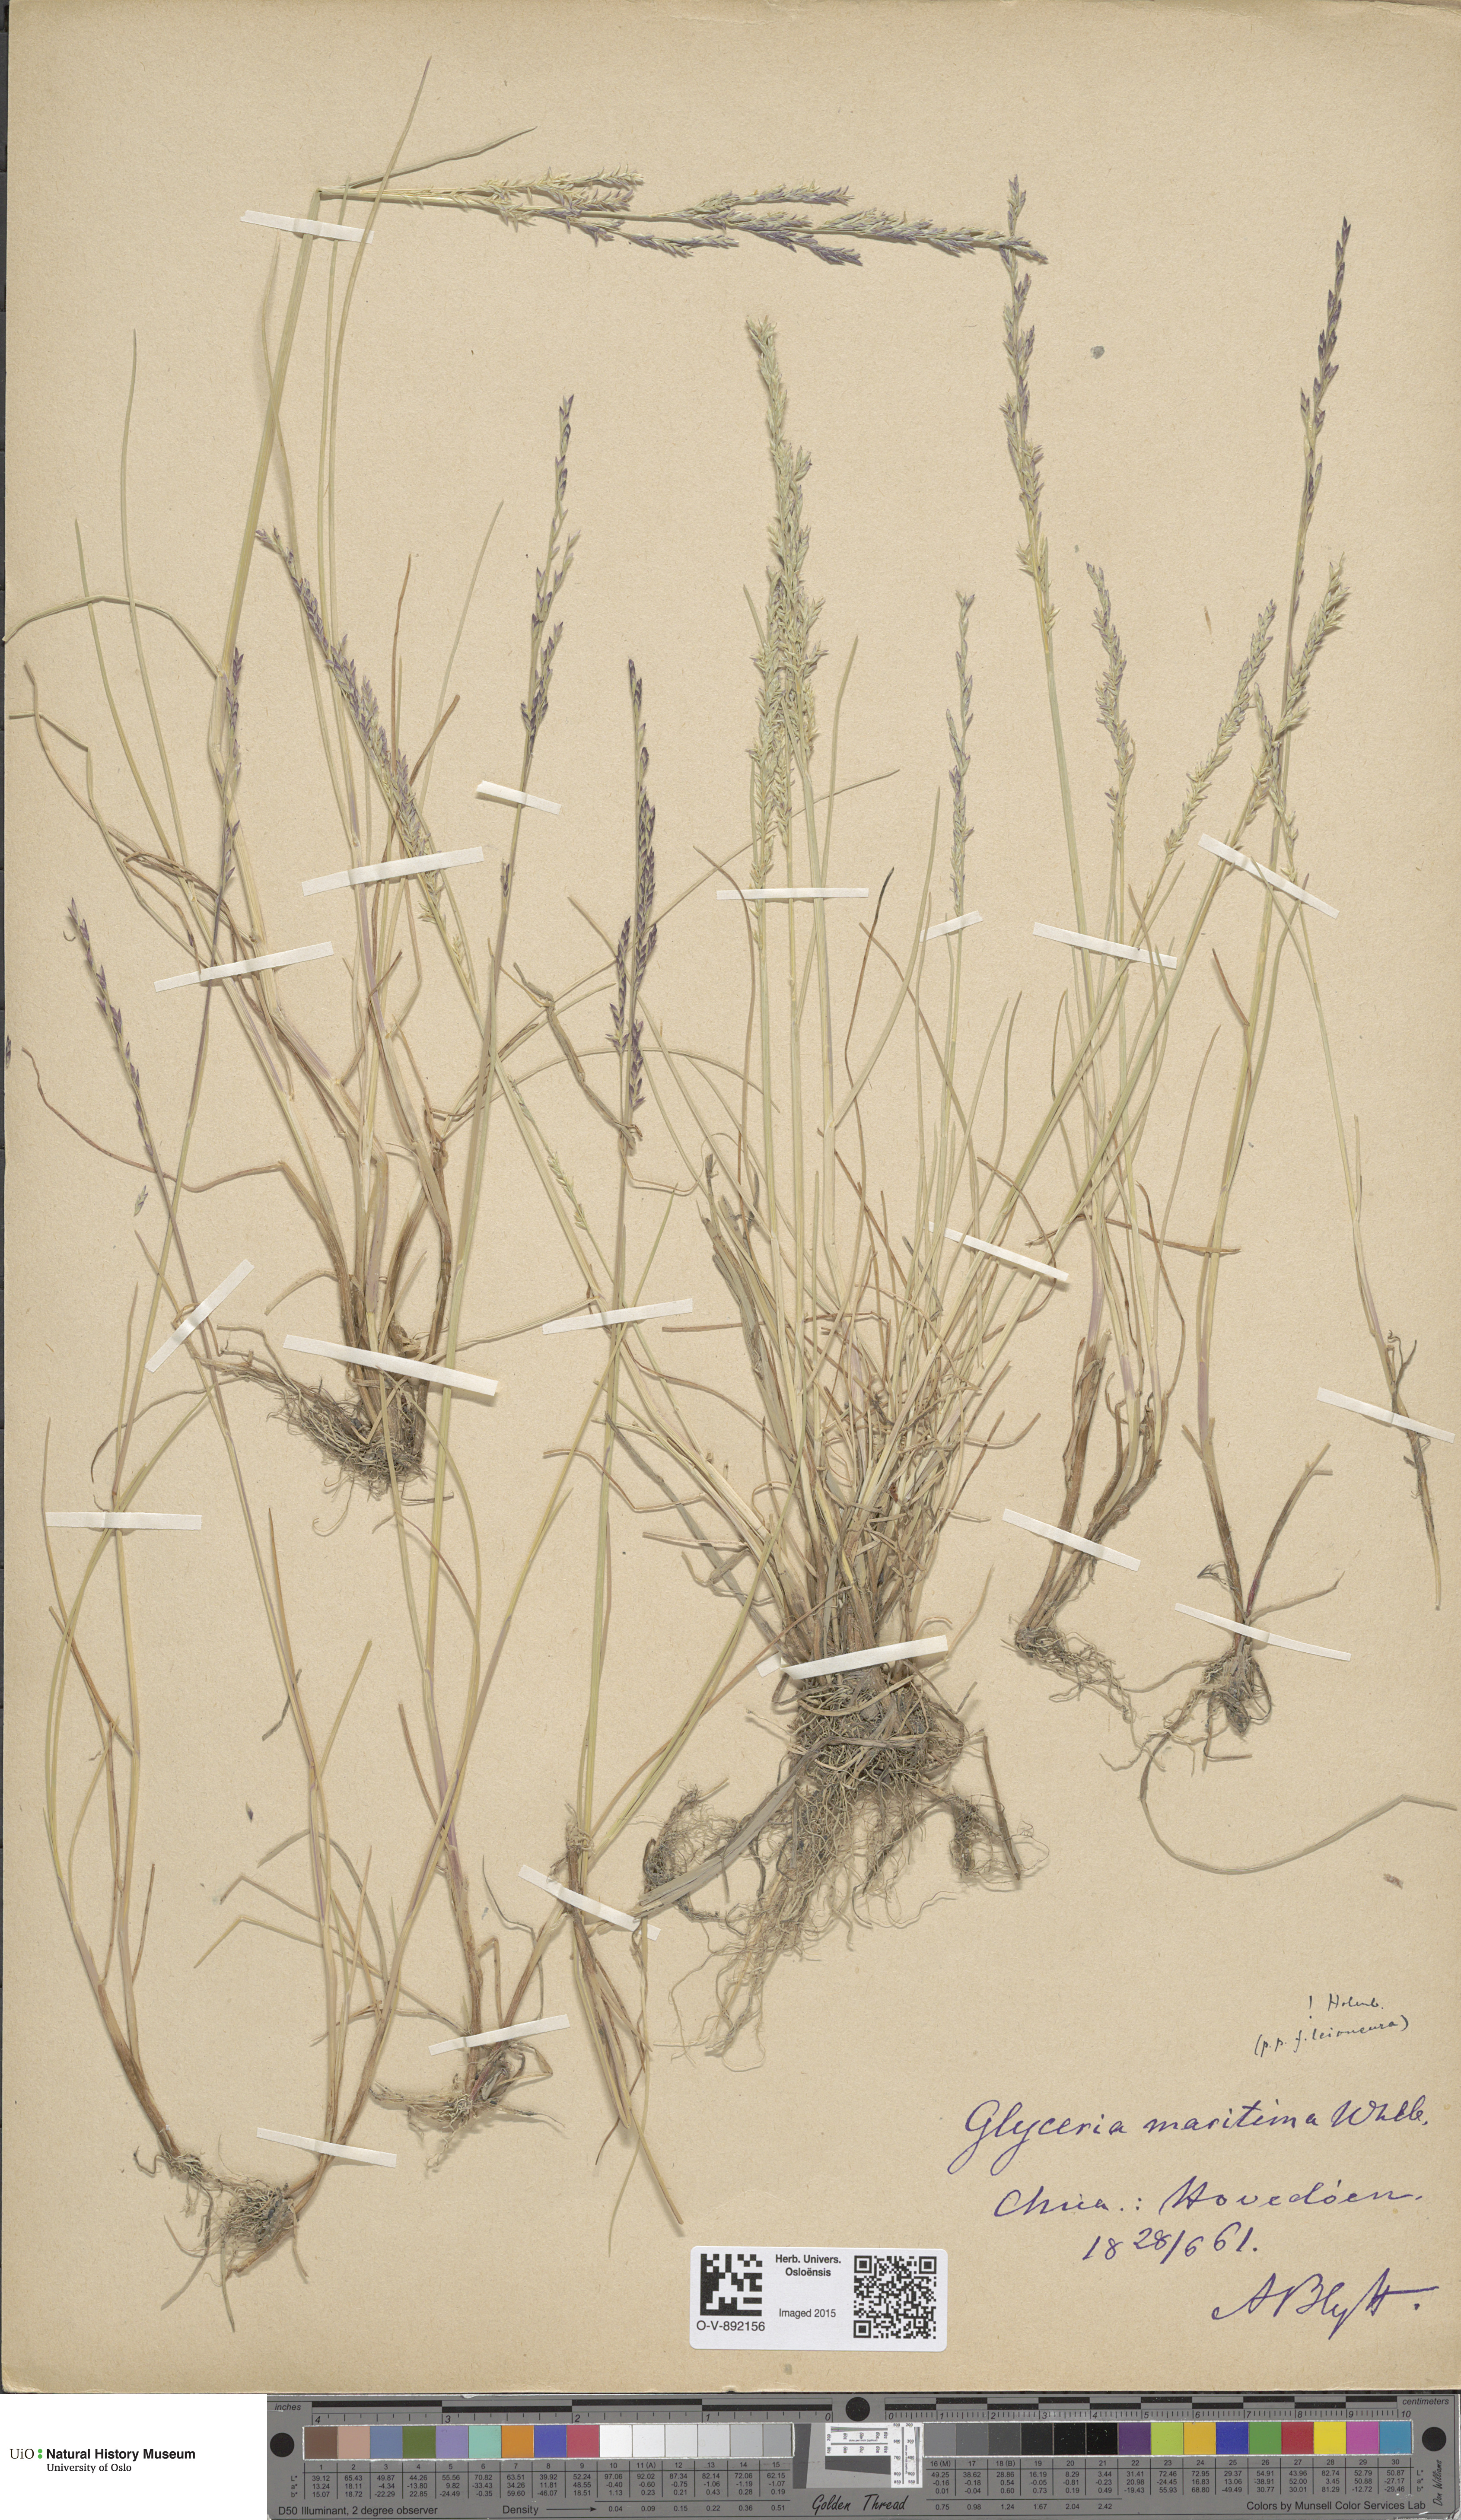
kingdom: Plantae
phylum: Tracheophyta
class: Liliopsida
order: Poales
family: Poaceae
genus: Puccinellia
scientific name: Puccinellia maritima
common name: Common saltmarsh grass
